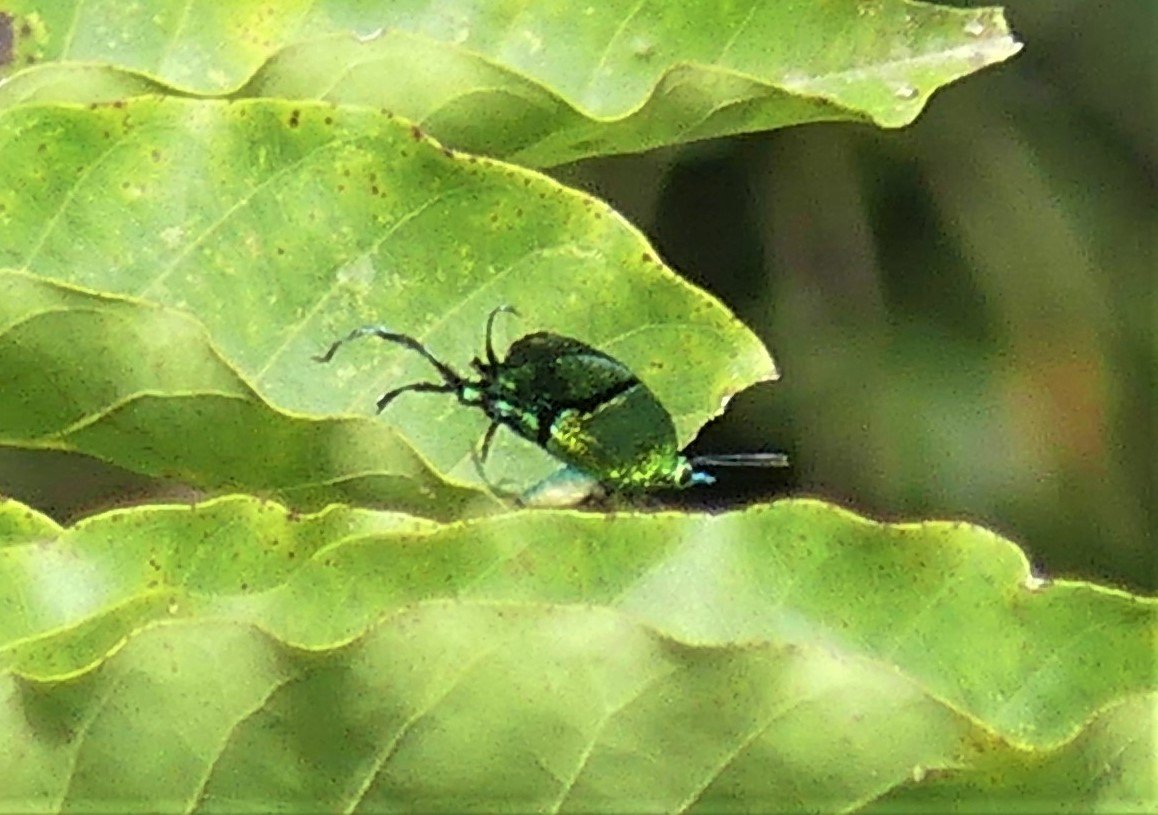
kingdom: Animalia
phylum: Arthropoda
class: Insecta
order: Lepidoptera
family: Lycaenidae
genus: Arcas
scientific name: Arcas cypria
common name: Mexican Arcas
